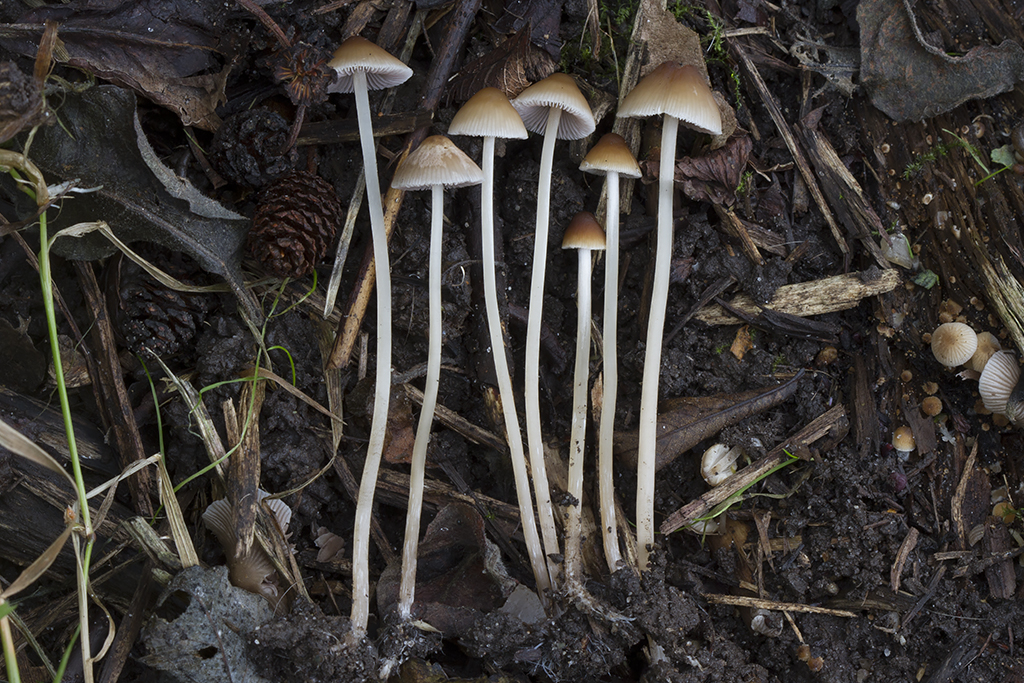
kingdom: Fungi
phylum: Basidiomycota
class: Agaricomycetes
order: Agaricales
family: Psathyrellaceae
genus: Psathyrella
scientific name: Psathyrella corrugis
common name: rødægget mørkhat
